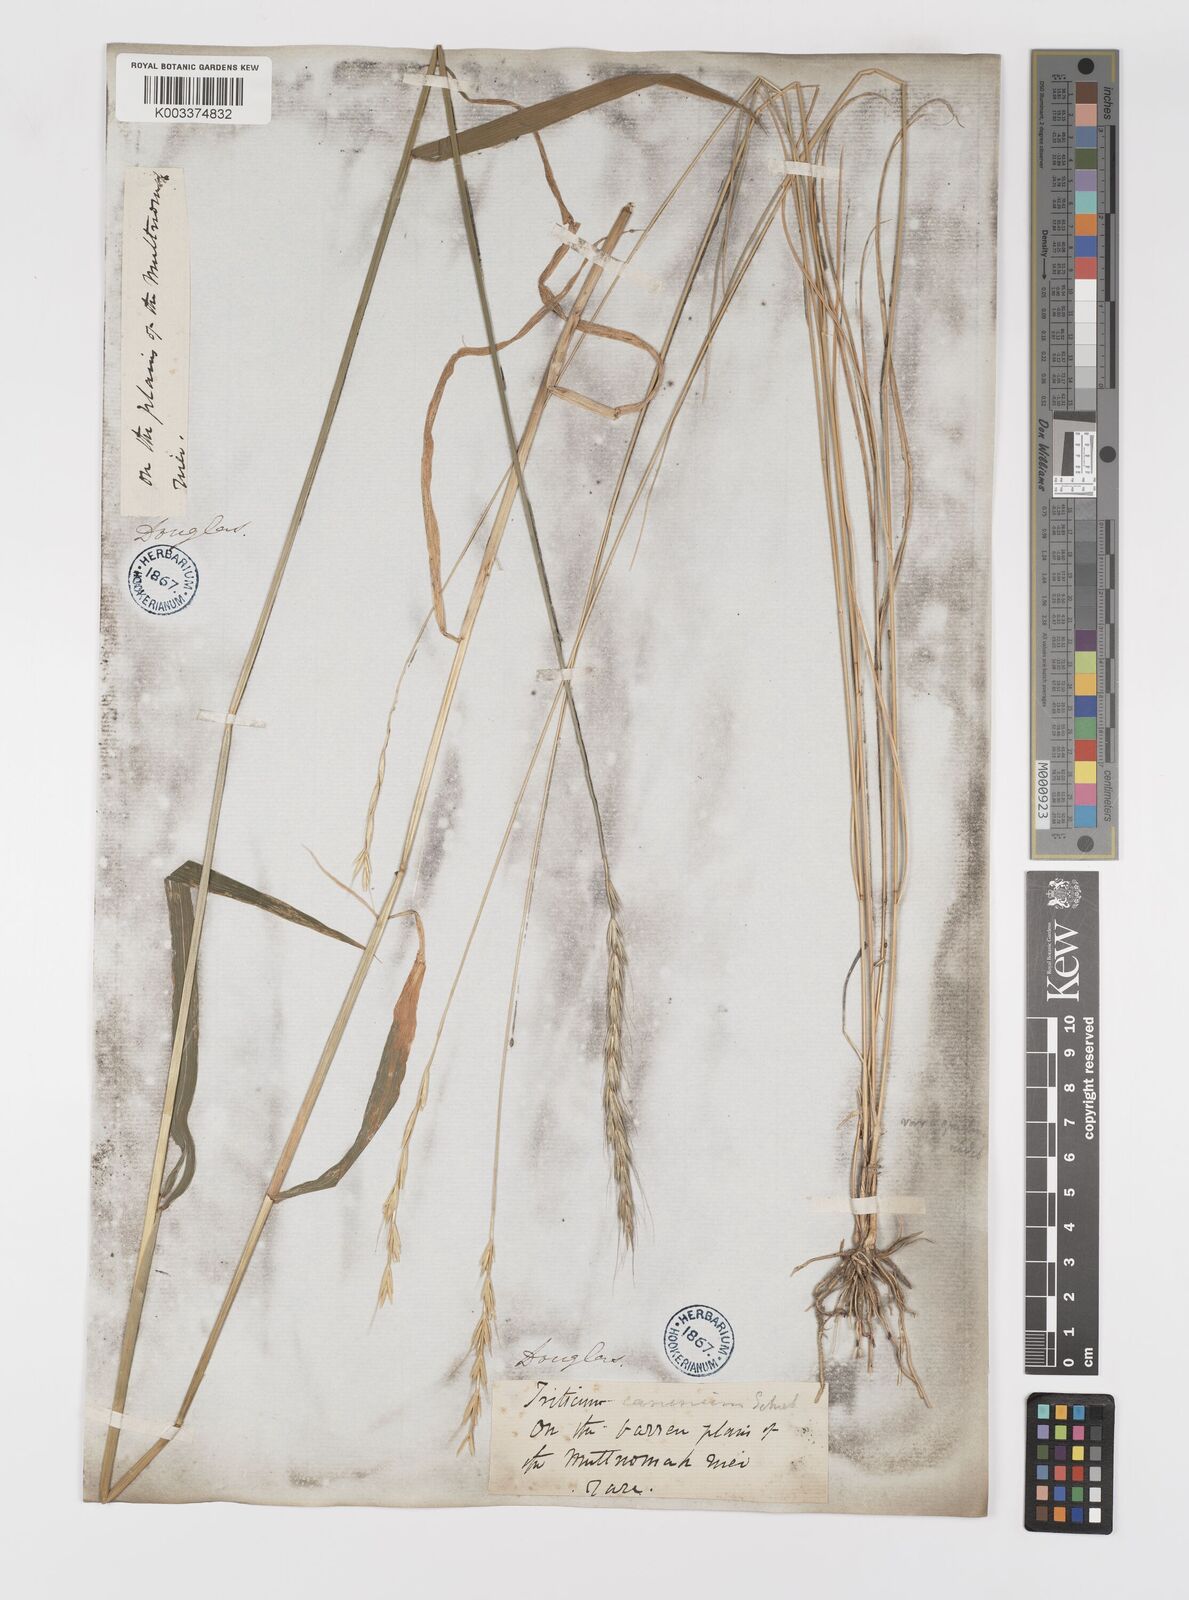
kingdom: Plantae
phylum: Tracheophyta
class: Liliopsida
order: Poales
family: Poaceae
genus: Elymus
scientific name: Elymus violaceus
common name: Arctic wheatgrass
